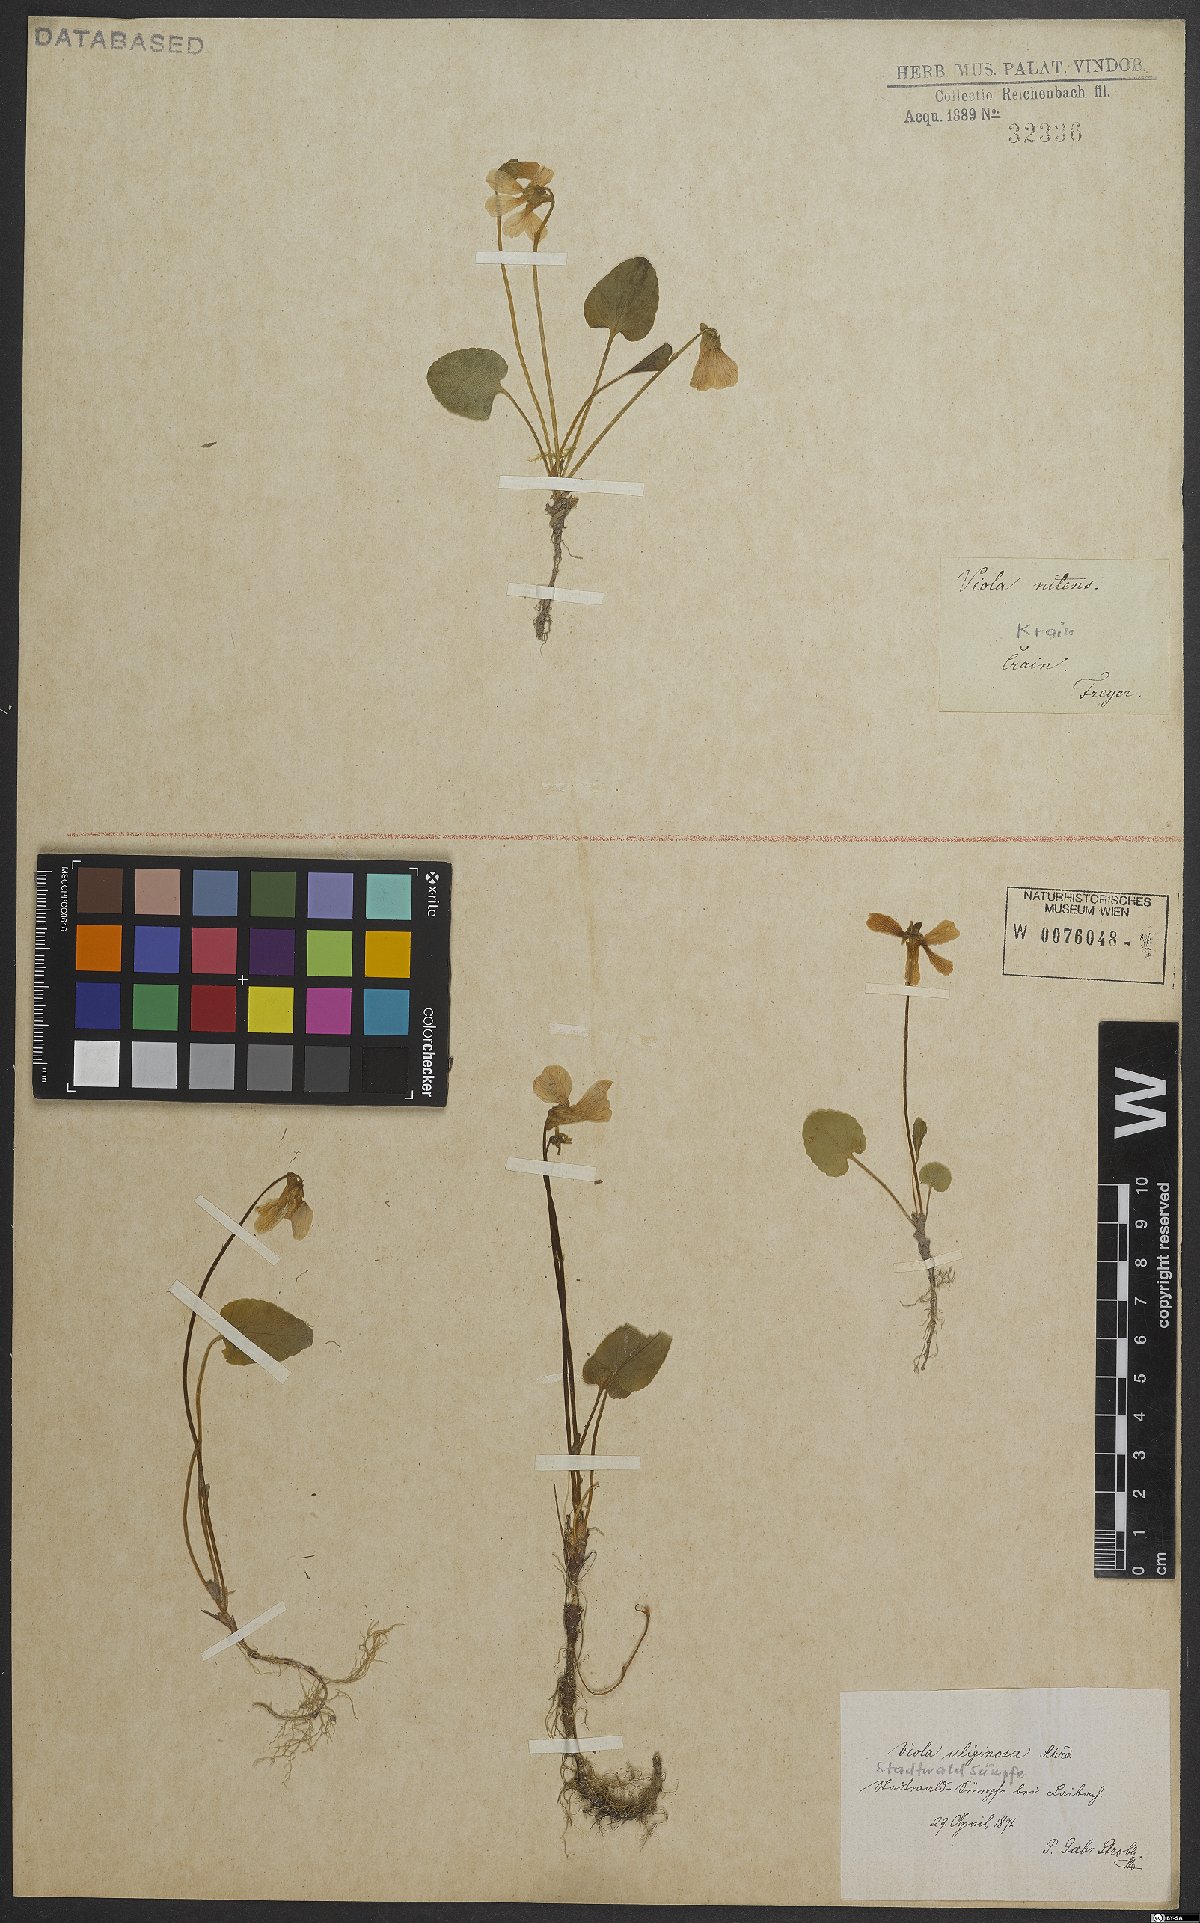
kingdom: Plantae
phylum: Tracheophyta
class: Magnoliopsida
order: Malpighiales
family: Violaceae
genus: Viola
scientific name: Viola uliginosa
